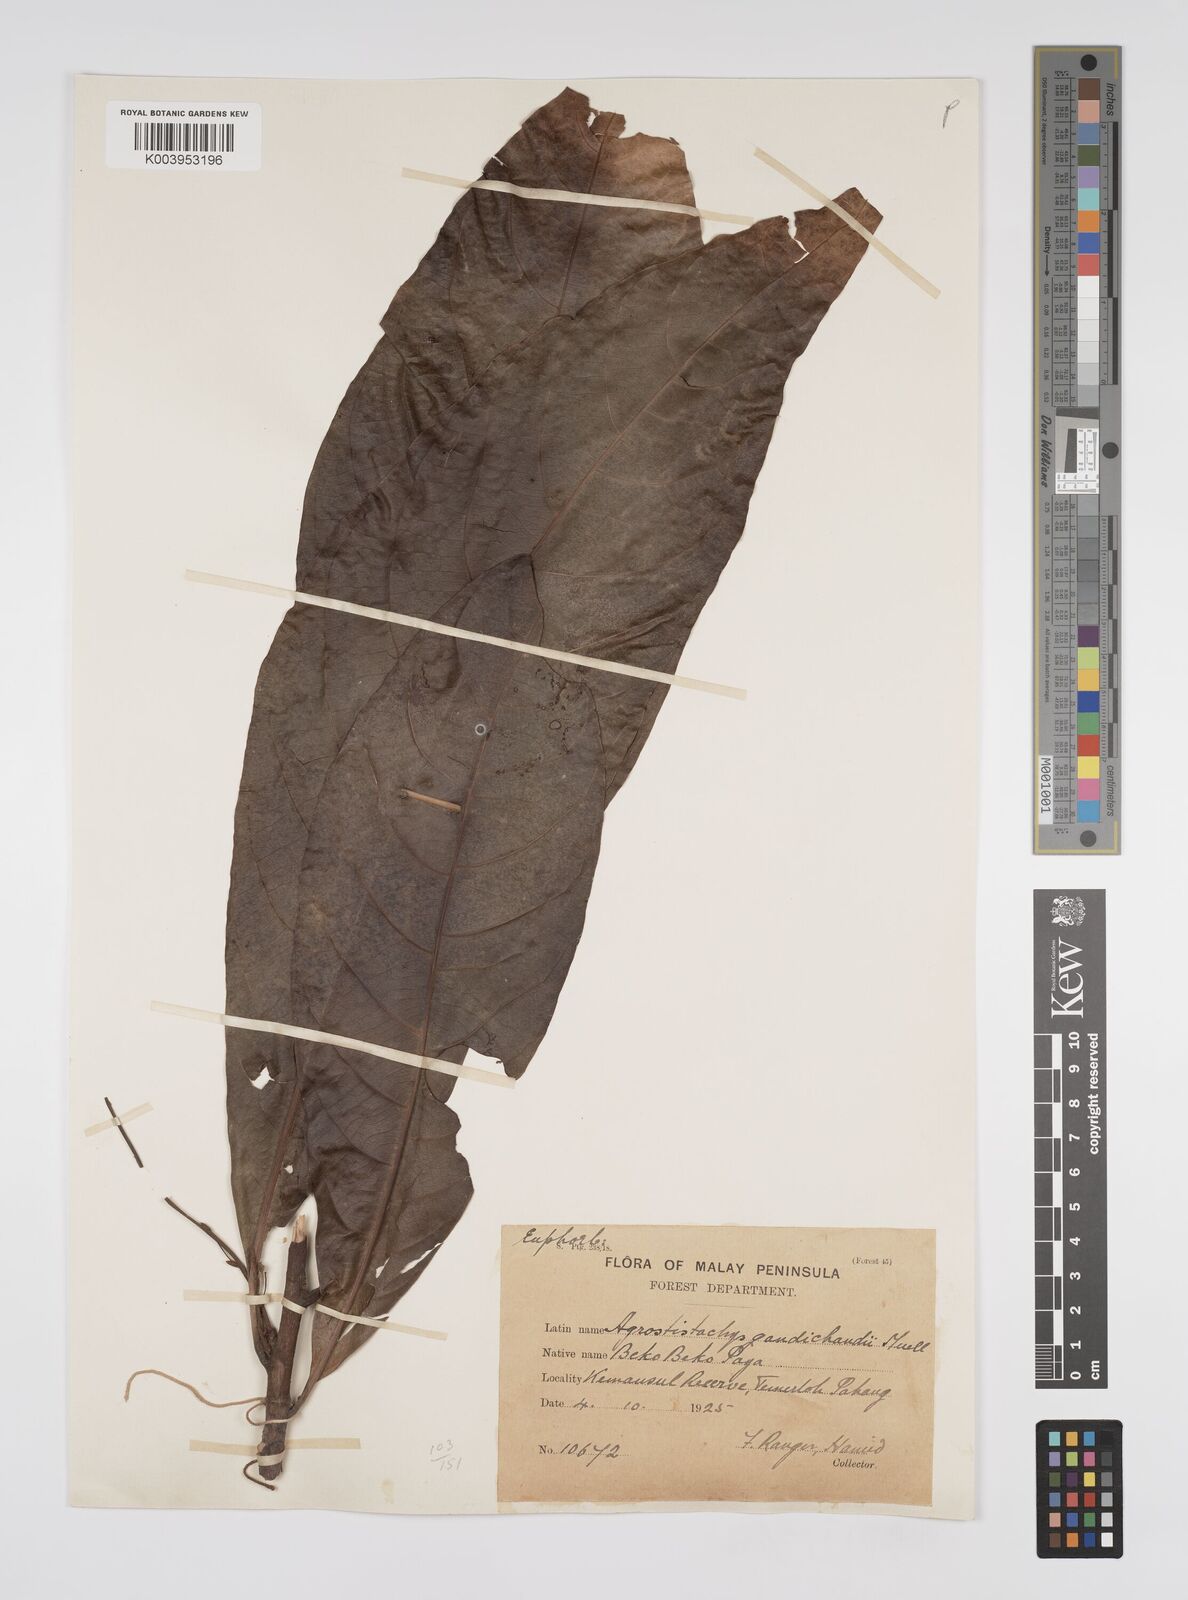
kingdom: Plantae
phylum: Tracheophyta
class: Magnoliopsida
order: Malpighiales
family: Euphorbiaceae
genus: Agrostistachys
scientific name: Agrostistachys gaudichaudii
